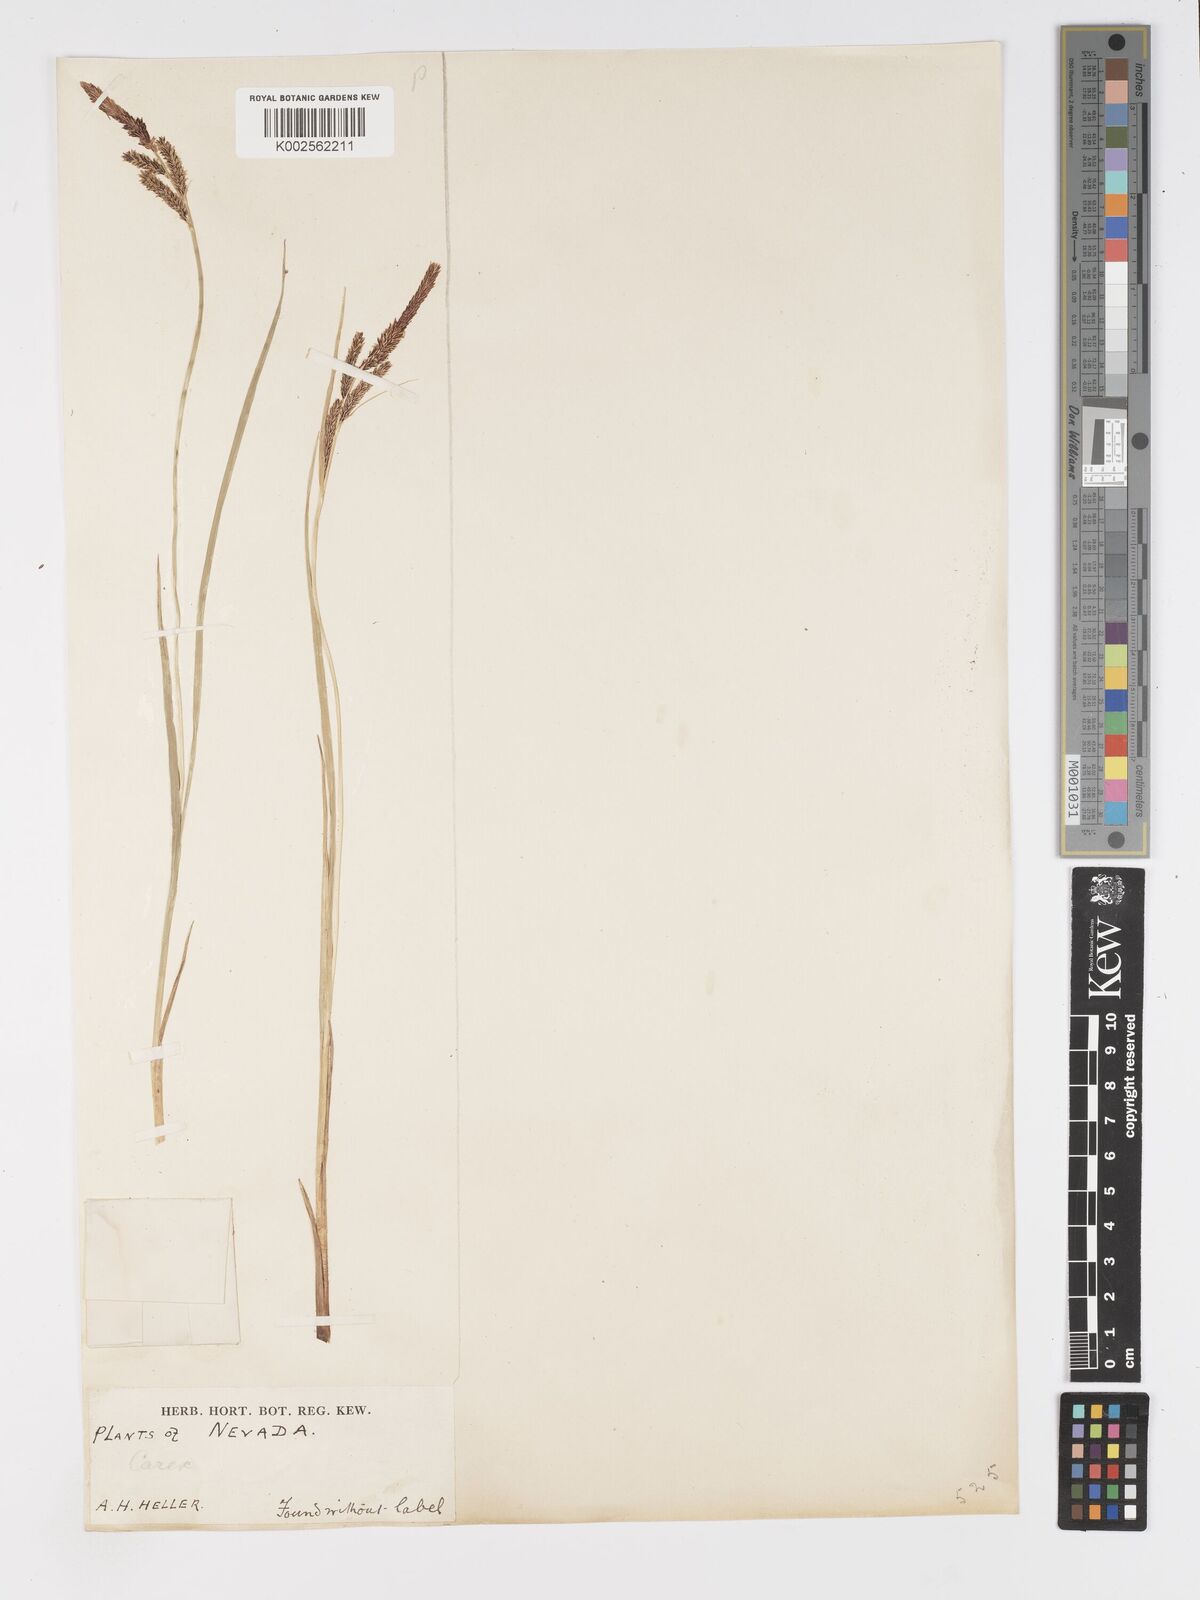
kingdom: Plantae
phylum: Tracheophyta
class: Liliopsida
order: Poales
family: Cyperaceae
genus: Carex
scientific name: Carex nigra
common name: Common sedge
